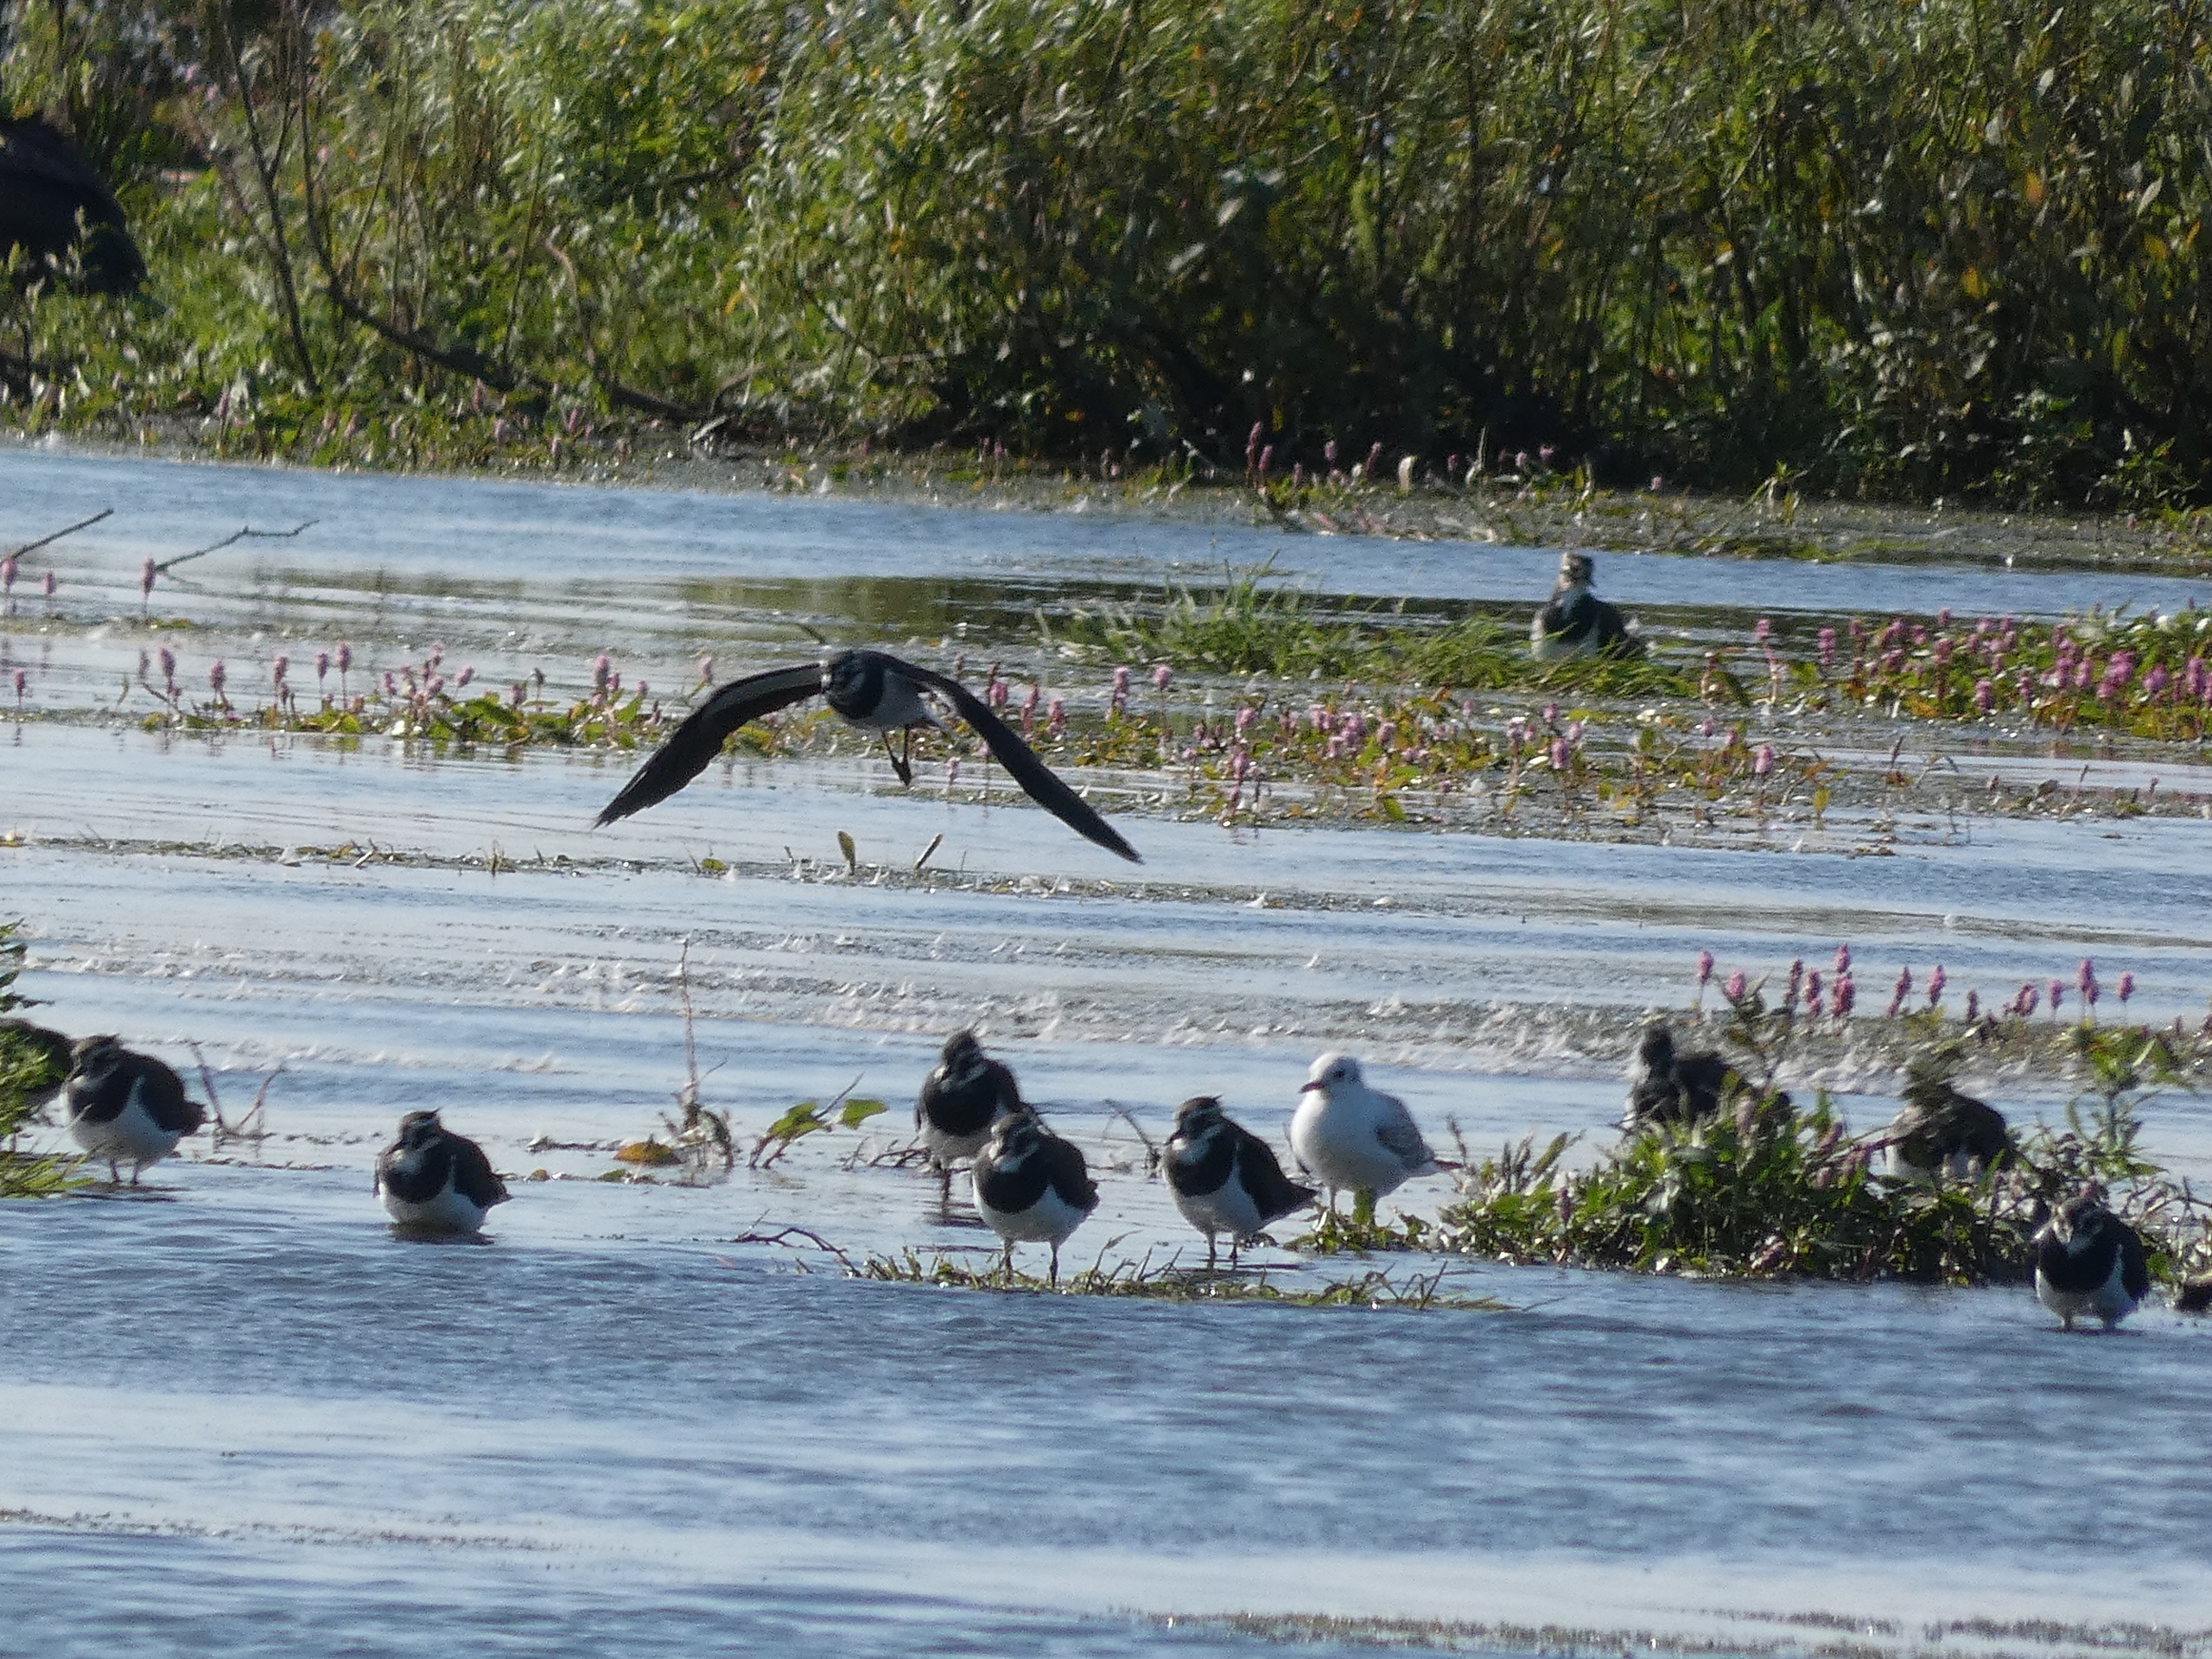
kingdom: Animalia
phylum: Chordata
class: Aves
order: Charadriiformes
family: Charadriidae
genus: Vanellus
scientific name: Vanellus vanellus
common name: Vibe
